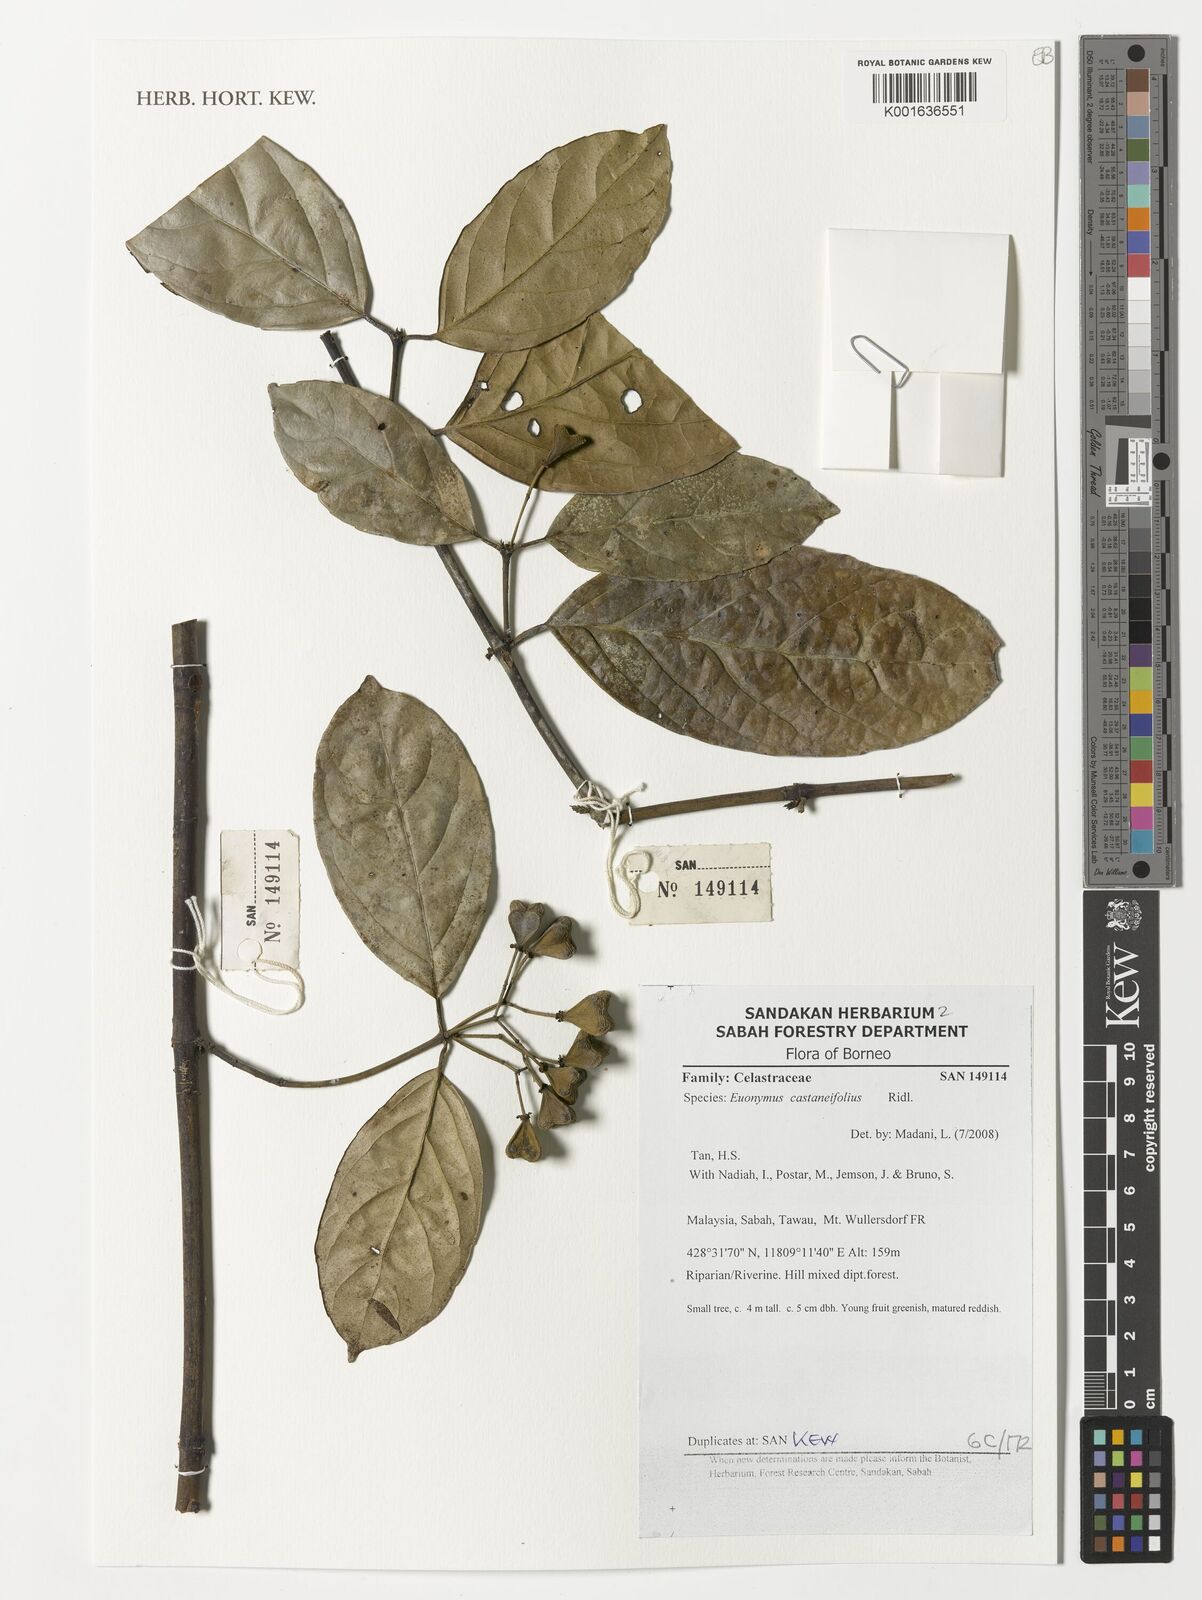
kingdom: Plantae
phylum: Tracheophyta
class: Magnoliopsida
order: Celastrales
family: Celastraceae
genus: Euonymus
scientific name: Euonymus castaneifolius
